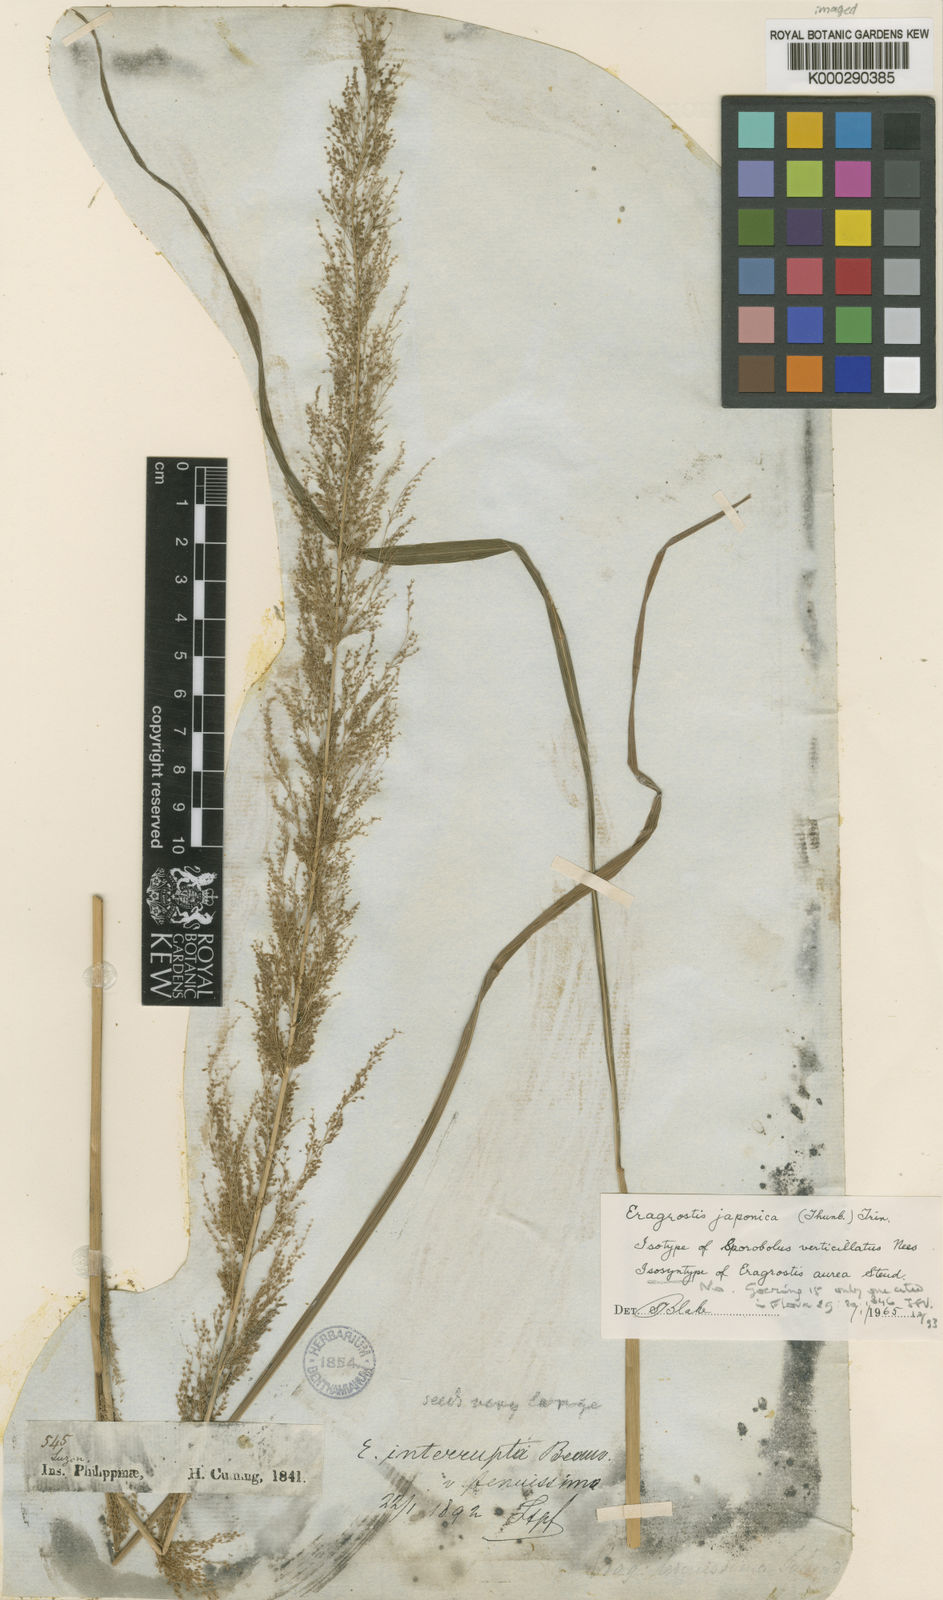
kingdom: Plantae
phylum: Tracheophyta
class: Liliopsida
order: Poales
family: Poaceae
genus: Eragrostis
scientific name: Eragrostis japonica
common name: Pond lovegrass
